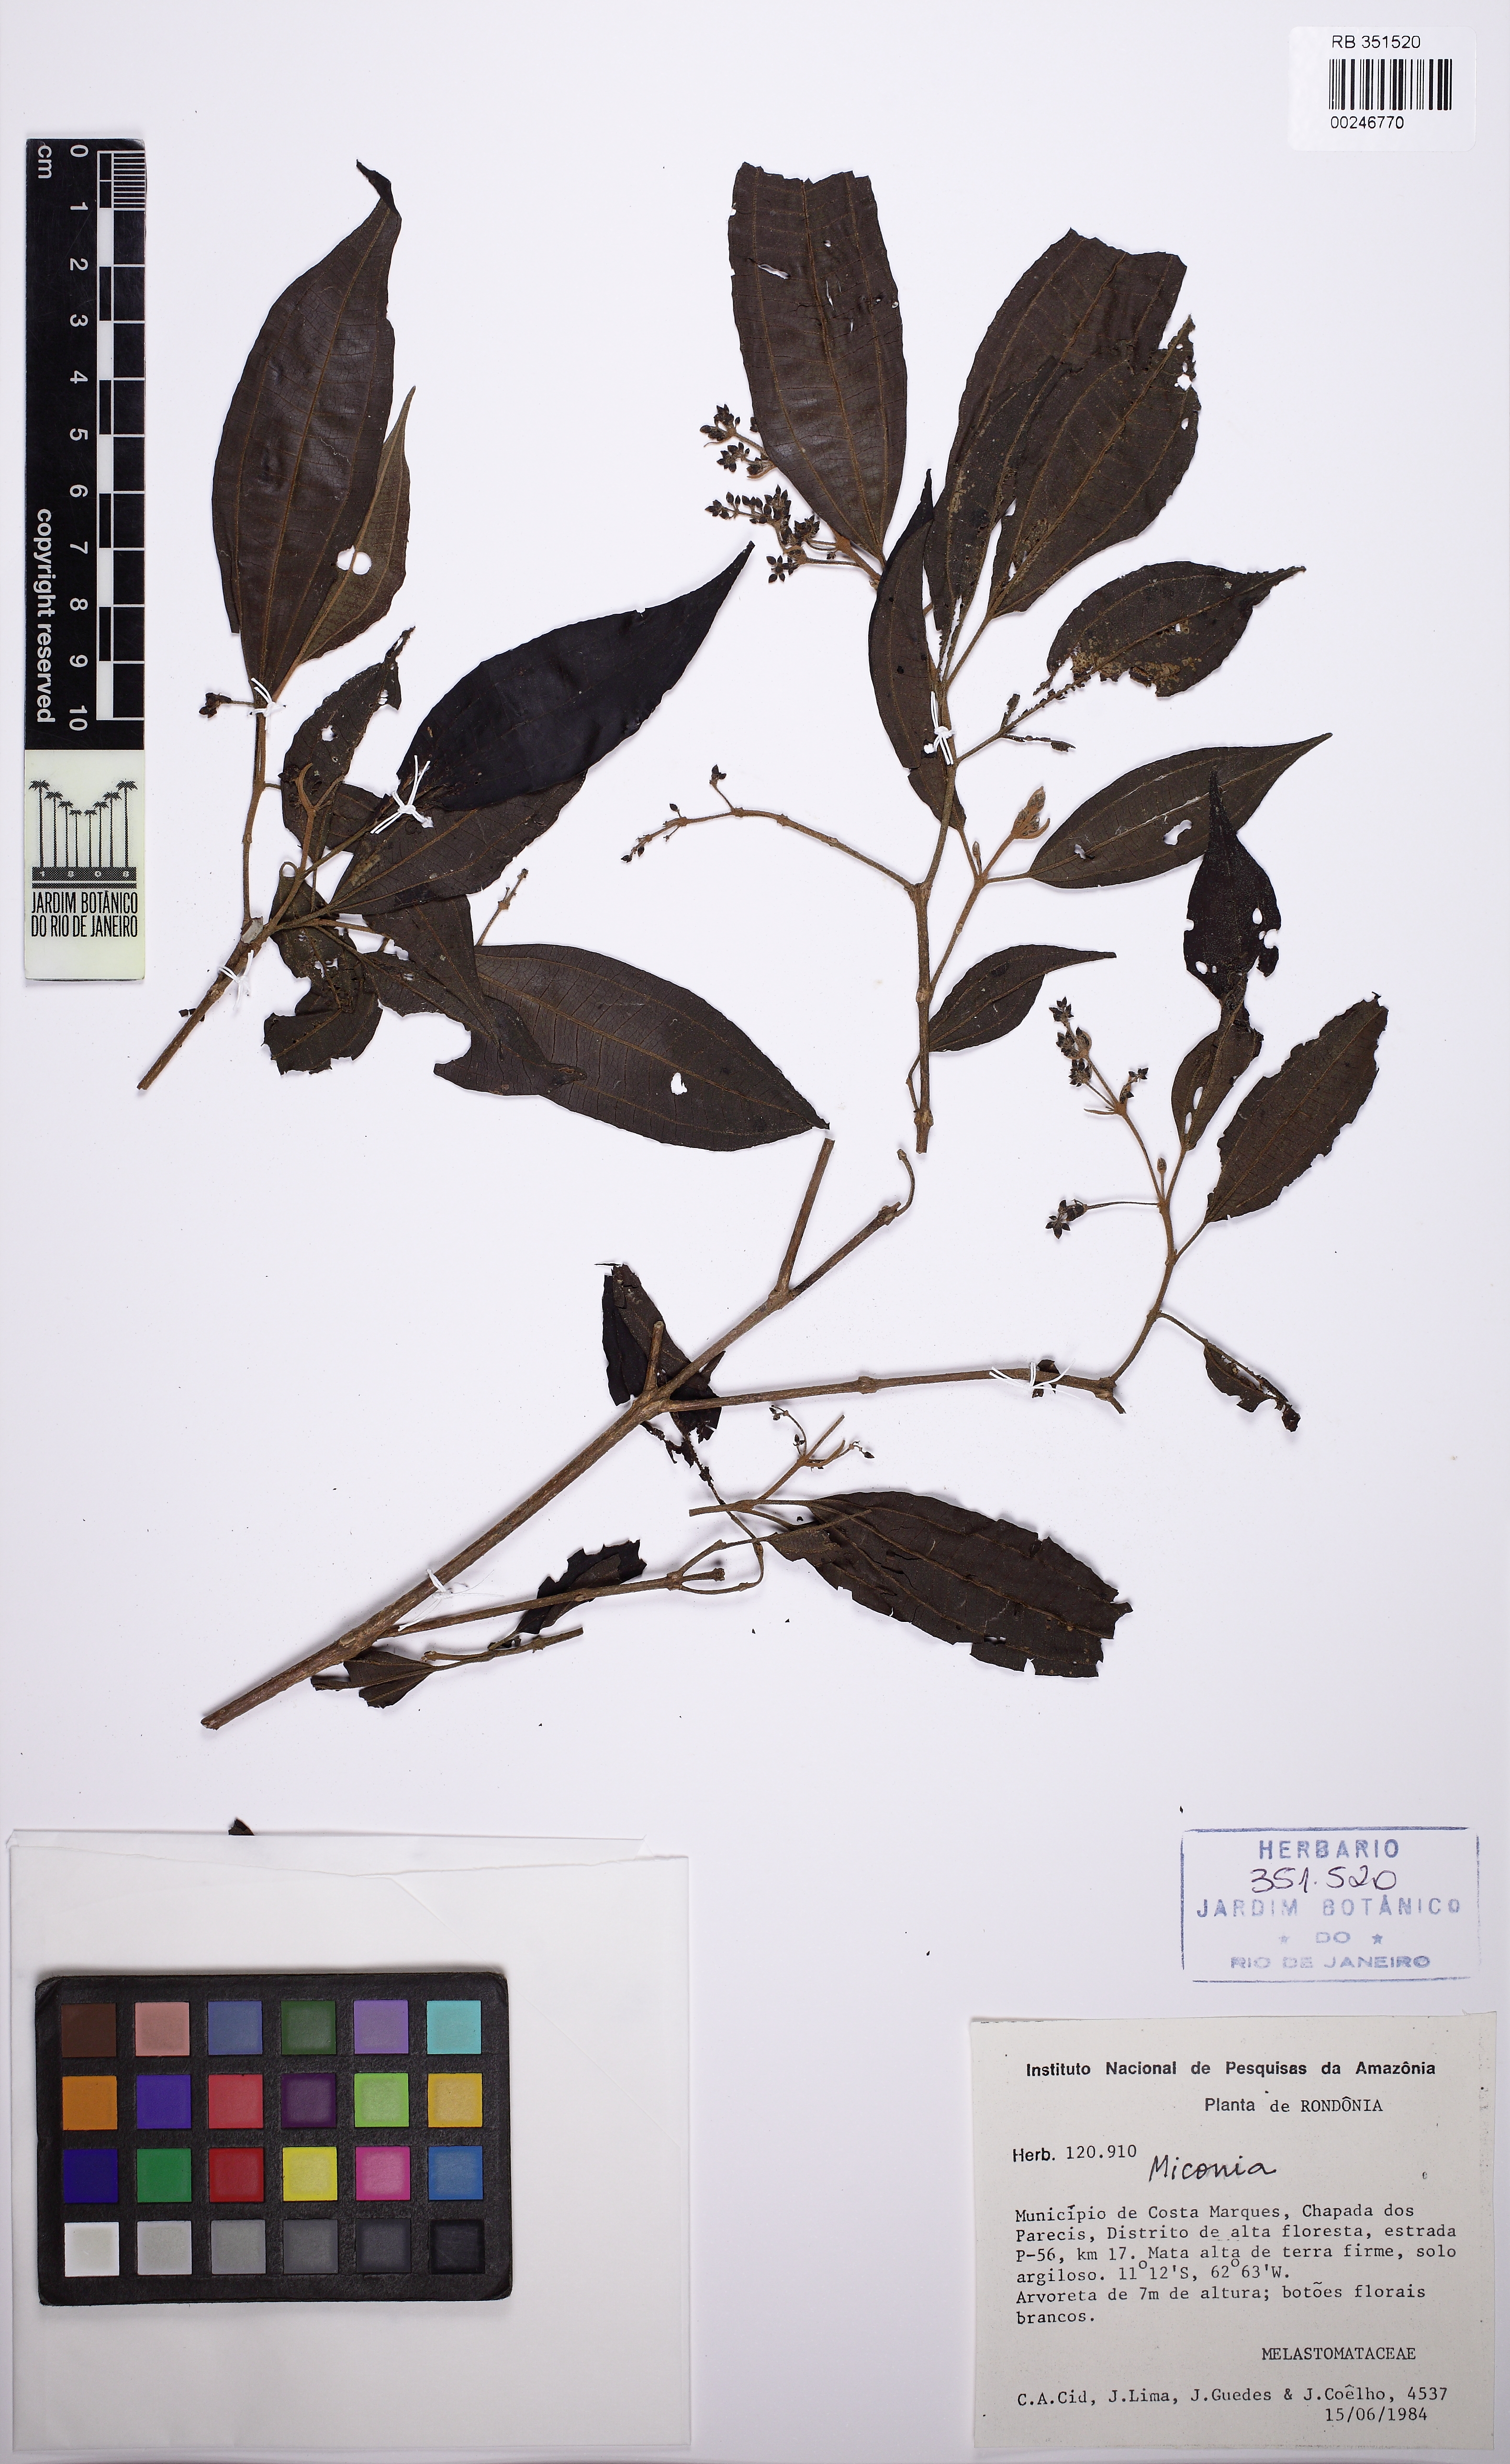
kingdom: Plantae
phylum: Tracheophyta
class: Magnoliopsida
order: Myrtales
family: Melastomataceae
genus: Miconia
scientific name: Miconia collatata
